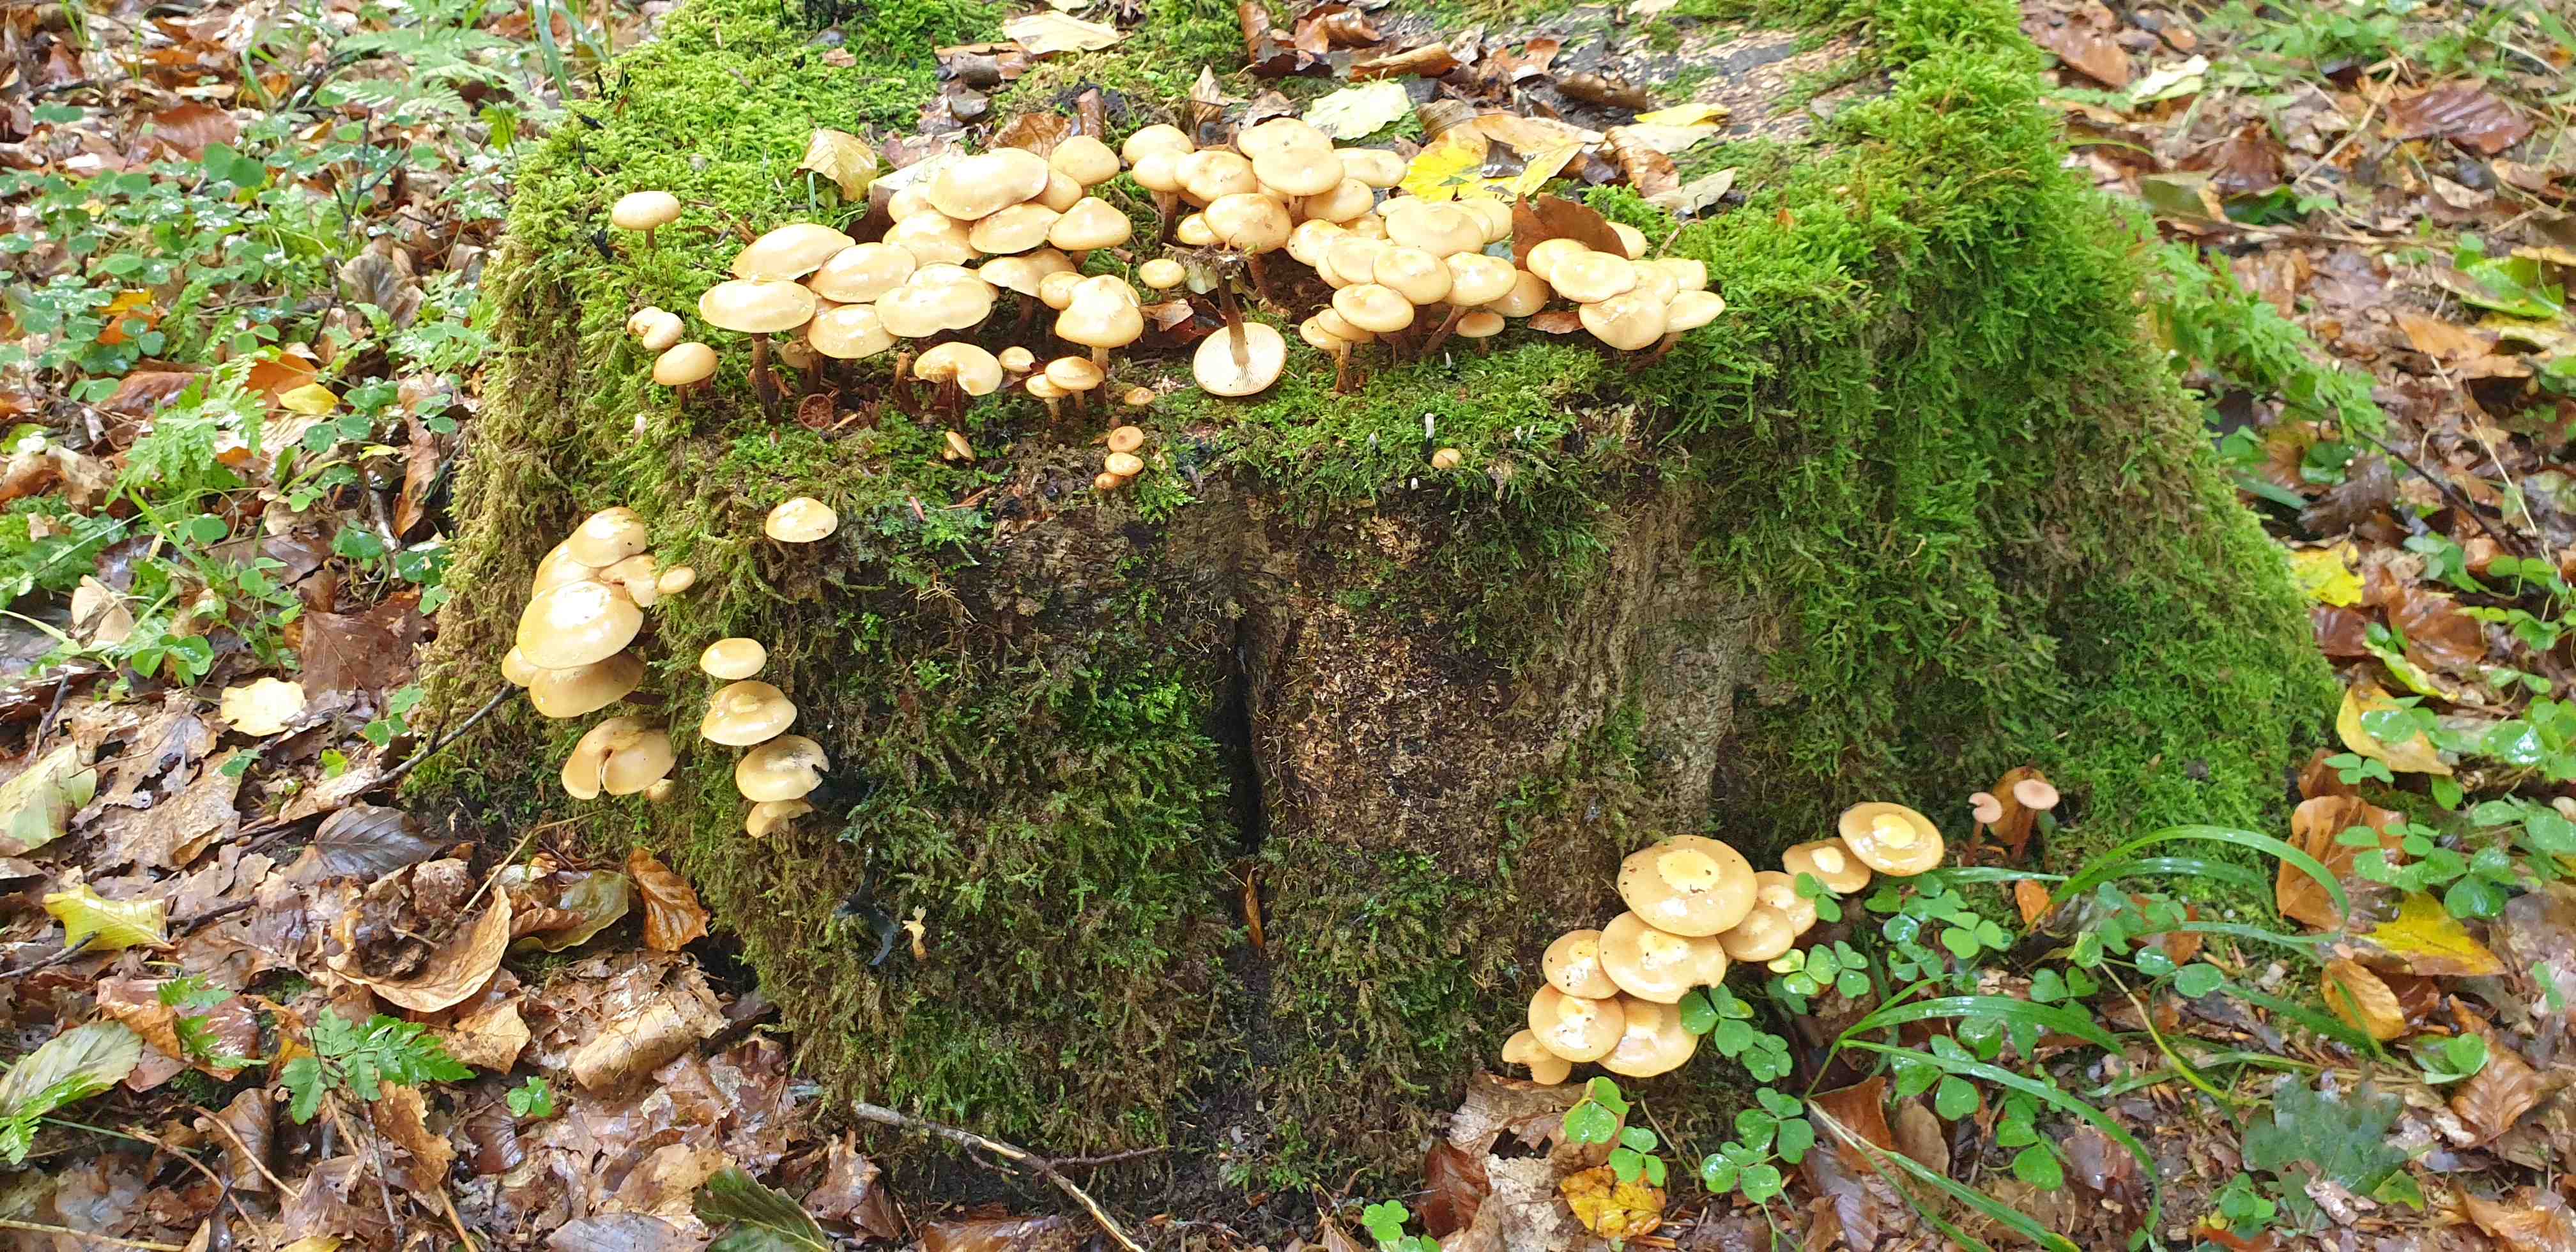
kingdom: Fungi
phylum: Basidiomycota
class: Agaricomycetes
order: Agaricales
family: Strophariaceae
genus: Kuehneromyces
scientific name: Kuehneromyces mutabilis
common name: foranderlig skælhat
